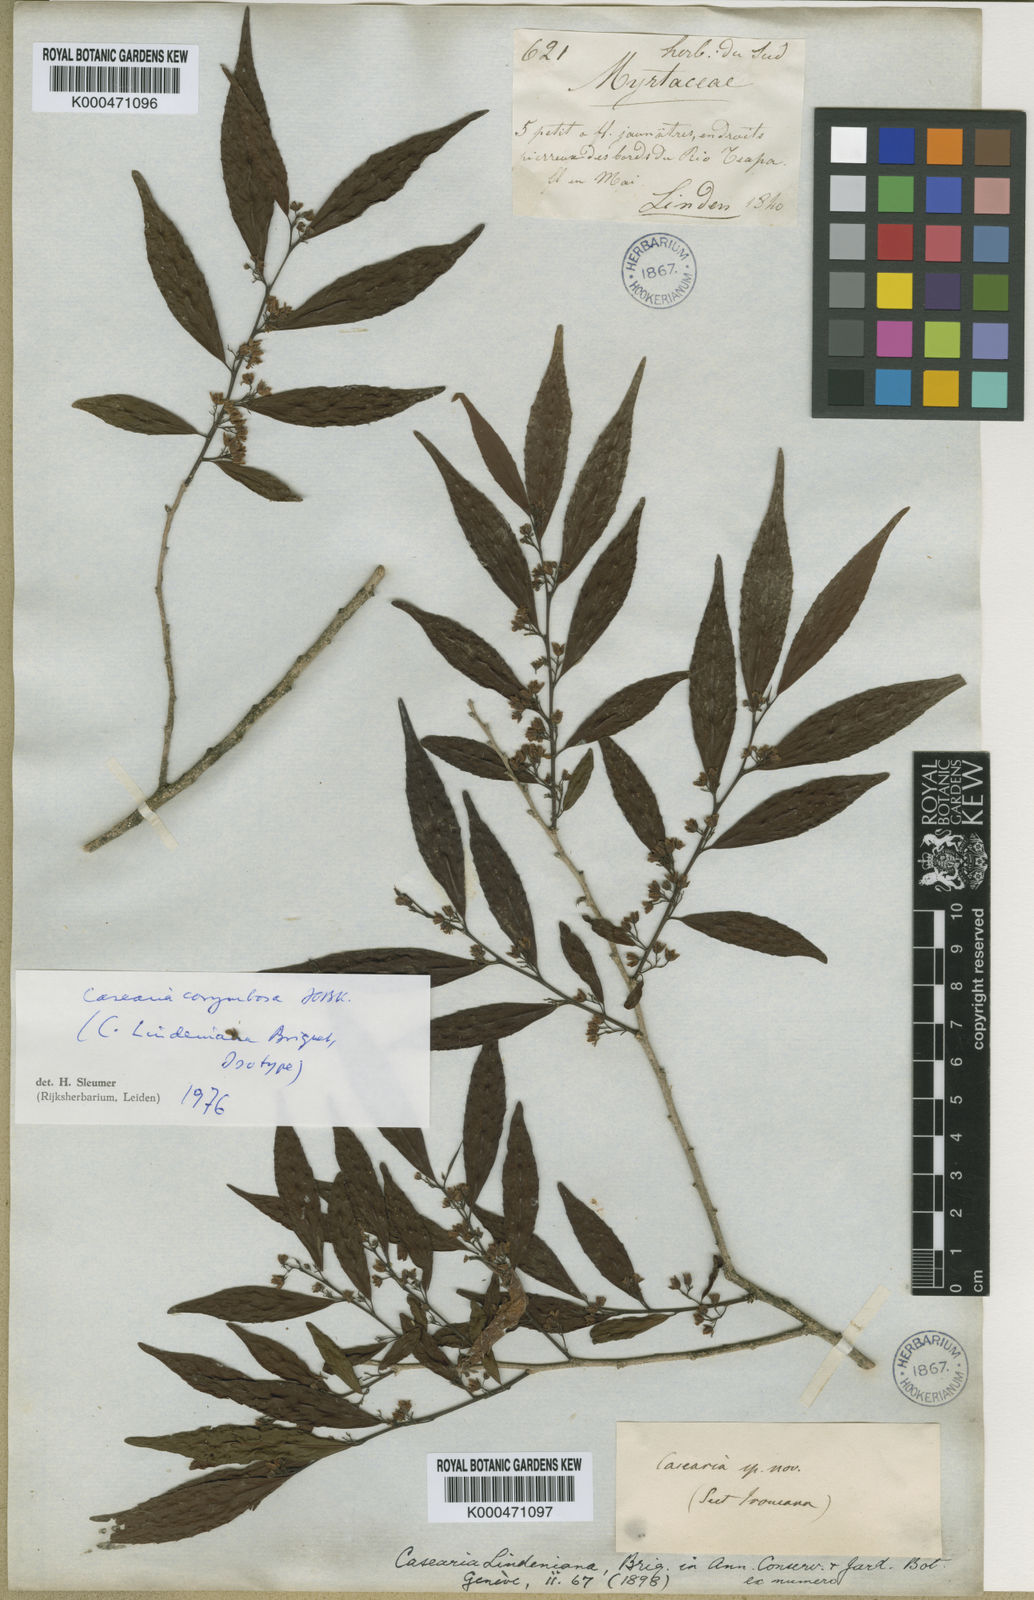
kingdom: Plantae
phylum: Tracheophyta
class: Magnoliopsida
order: Malpighiales
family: Salicaceae
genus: Casearia
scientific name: Casearia corymbosa
